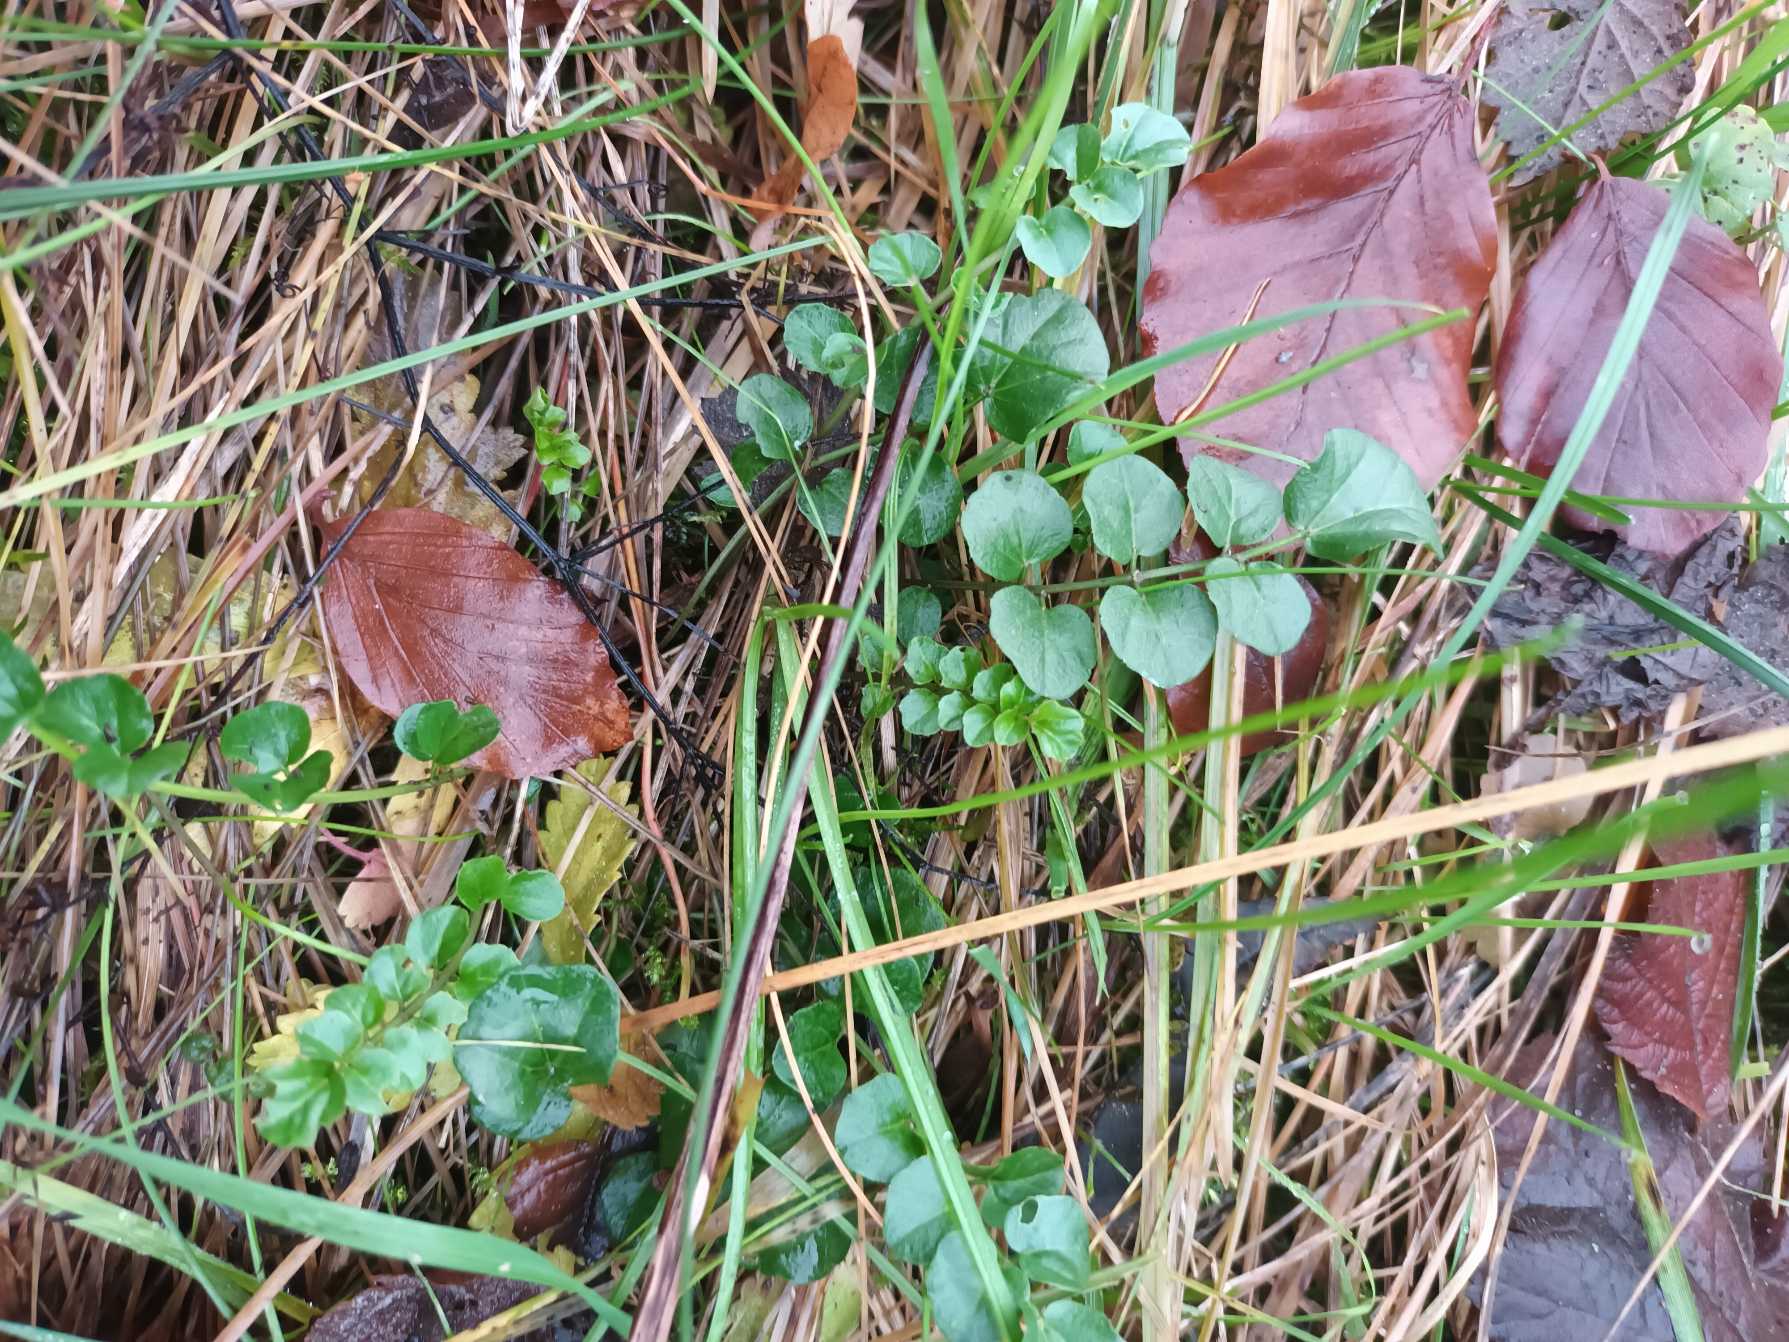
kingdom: Plantae
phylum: Tracheophyta
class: Magnoliopsida
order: Brassicales
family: Brassicaceae
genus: Cardamine
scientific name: Cardamine pratensis
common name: Engkarse
